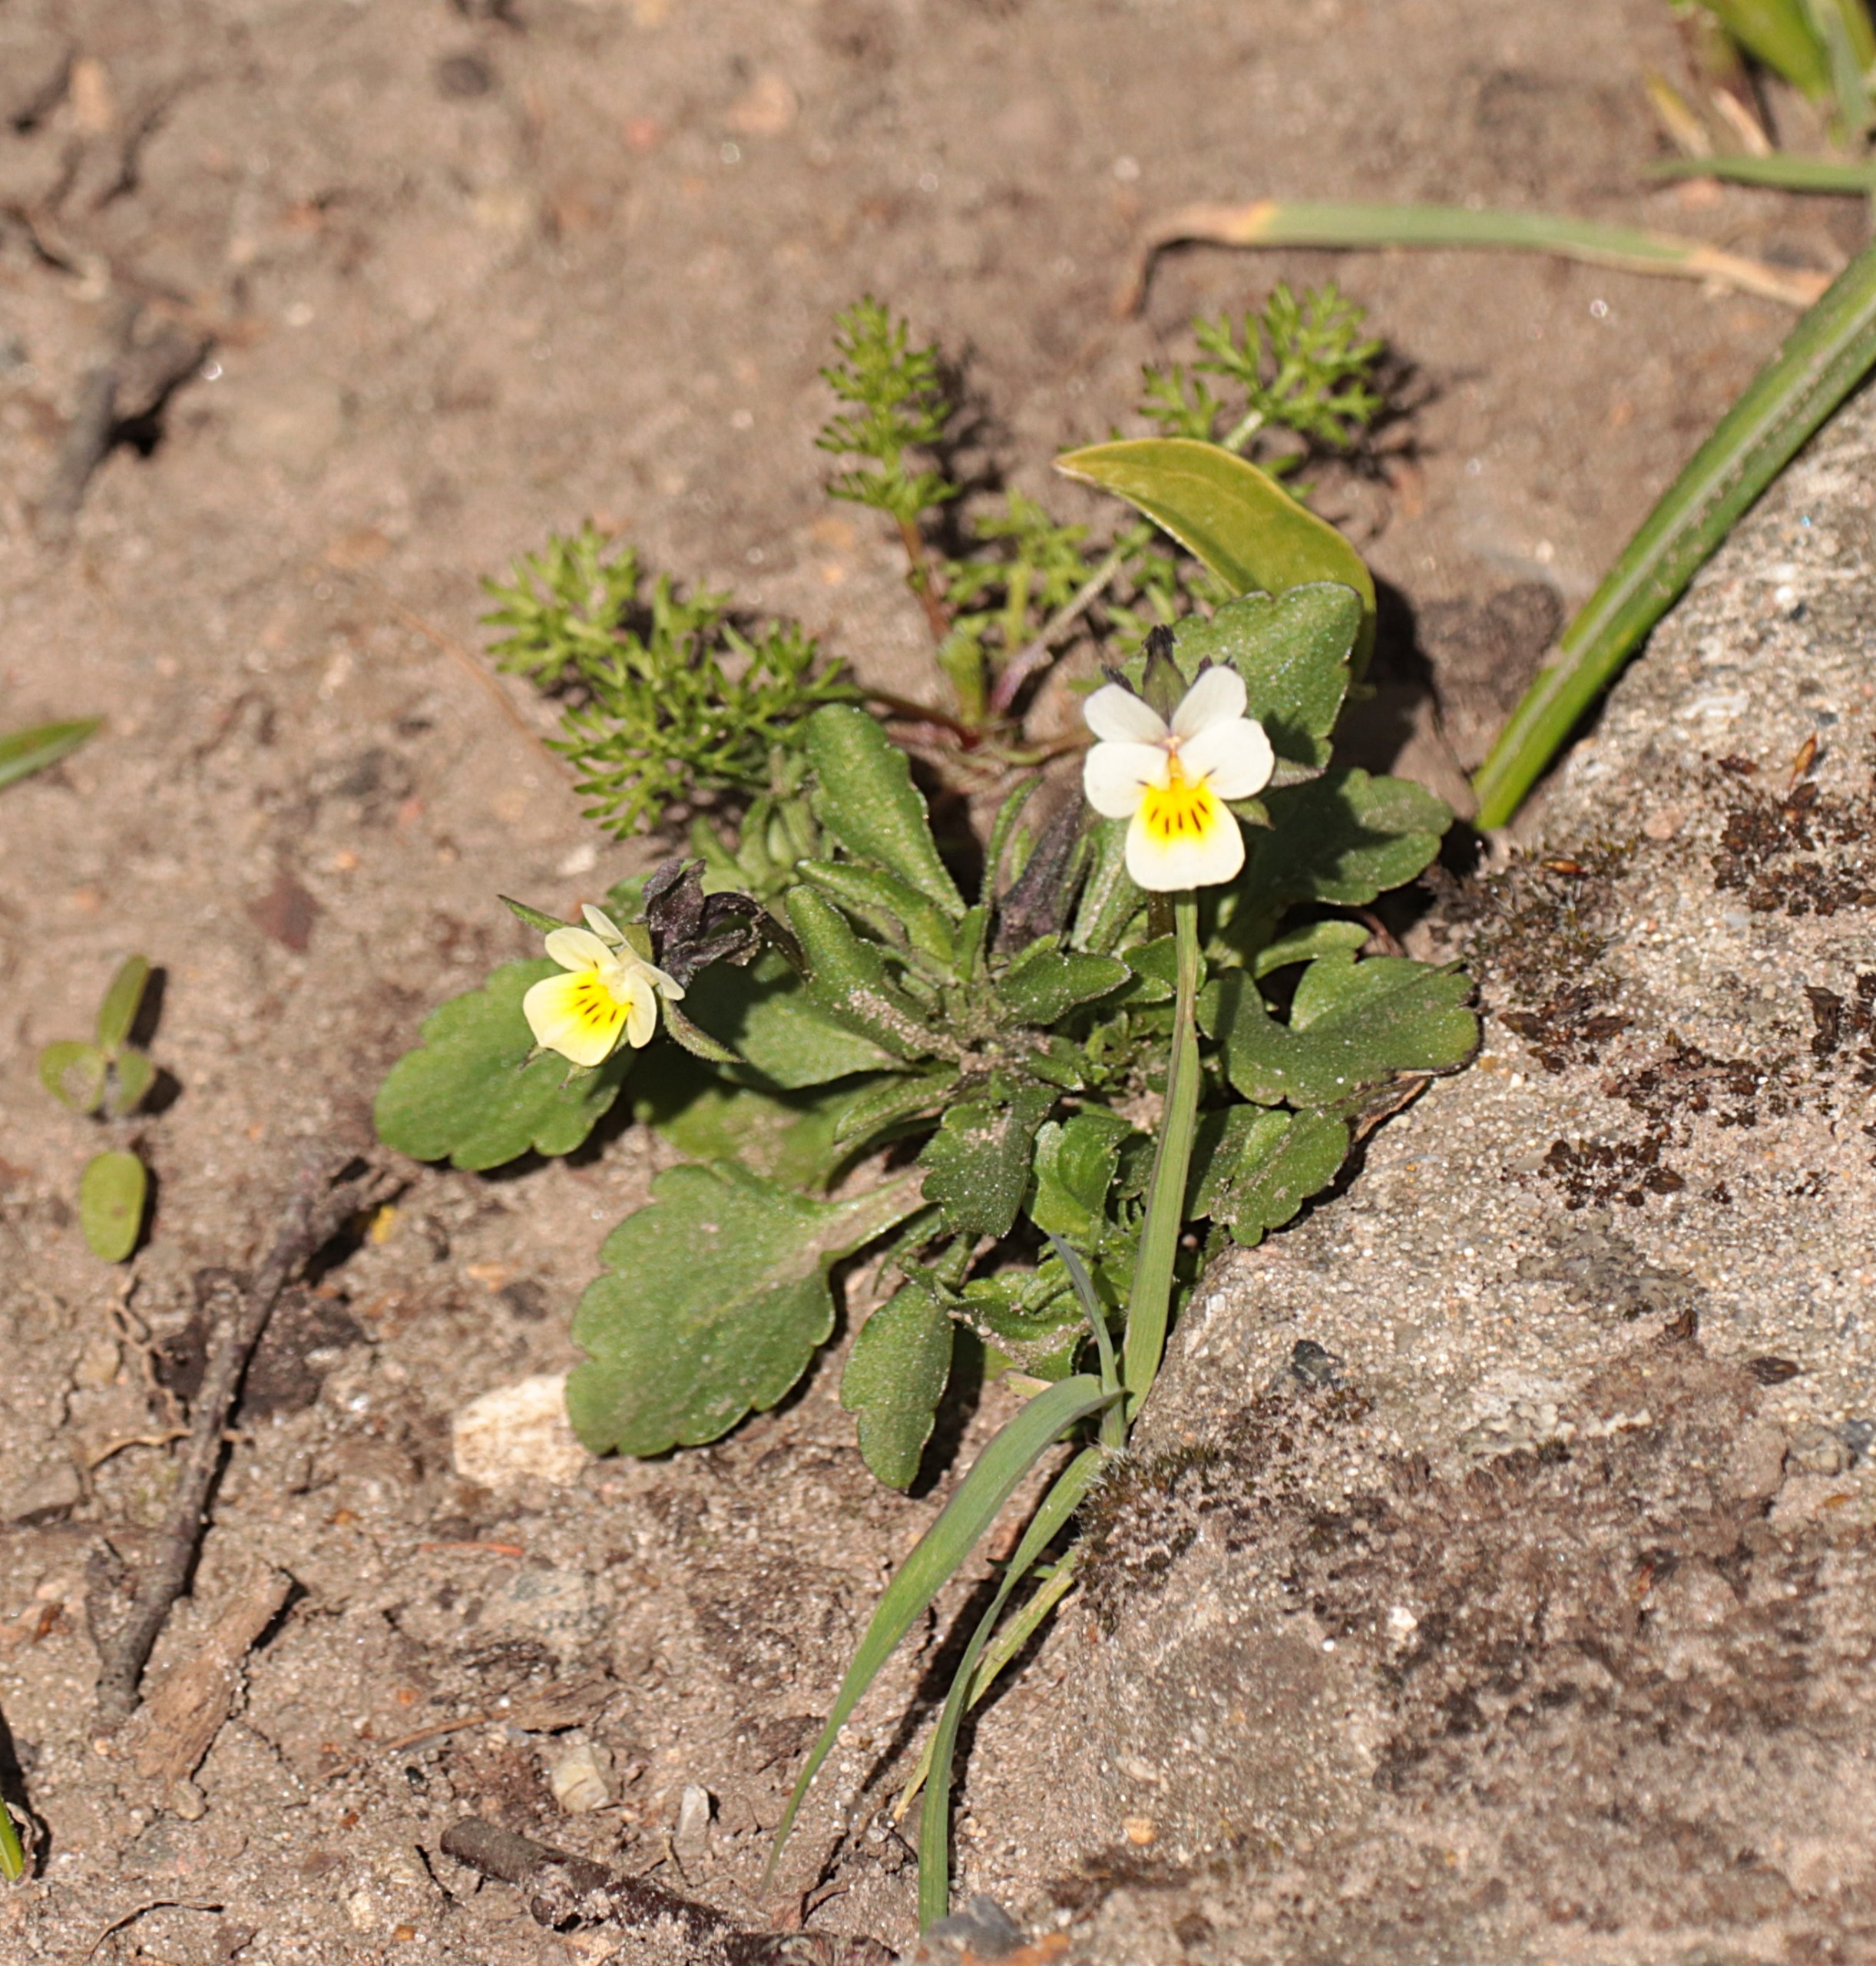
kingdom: Plantae
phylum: Tracheophyta
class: Magnoliopsida
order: Malpighiales
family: Violaceae
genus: Viola
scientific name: Viola arvensis
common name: Ager-stedmoderblomst
